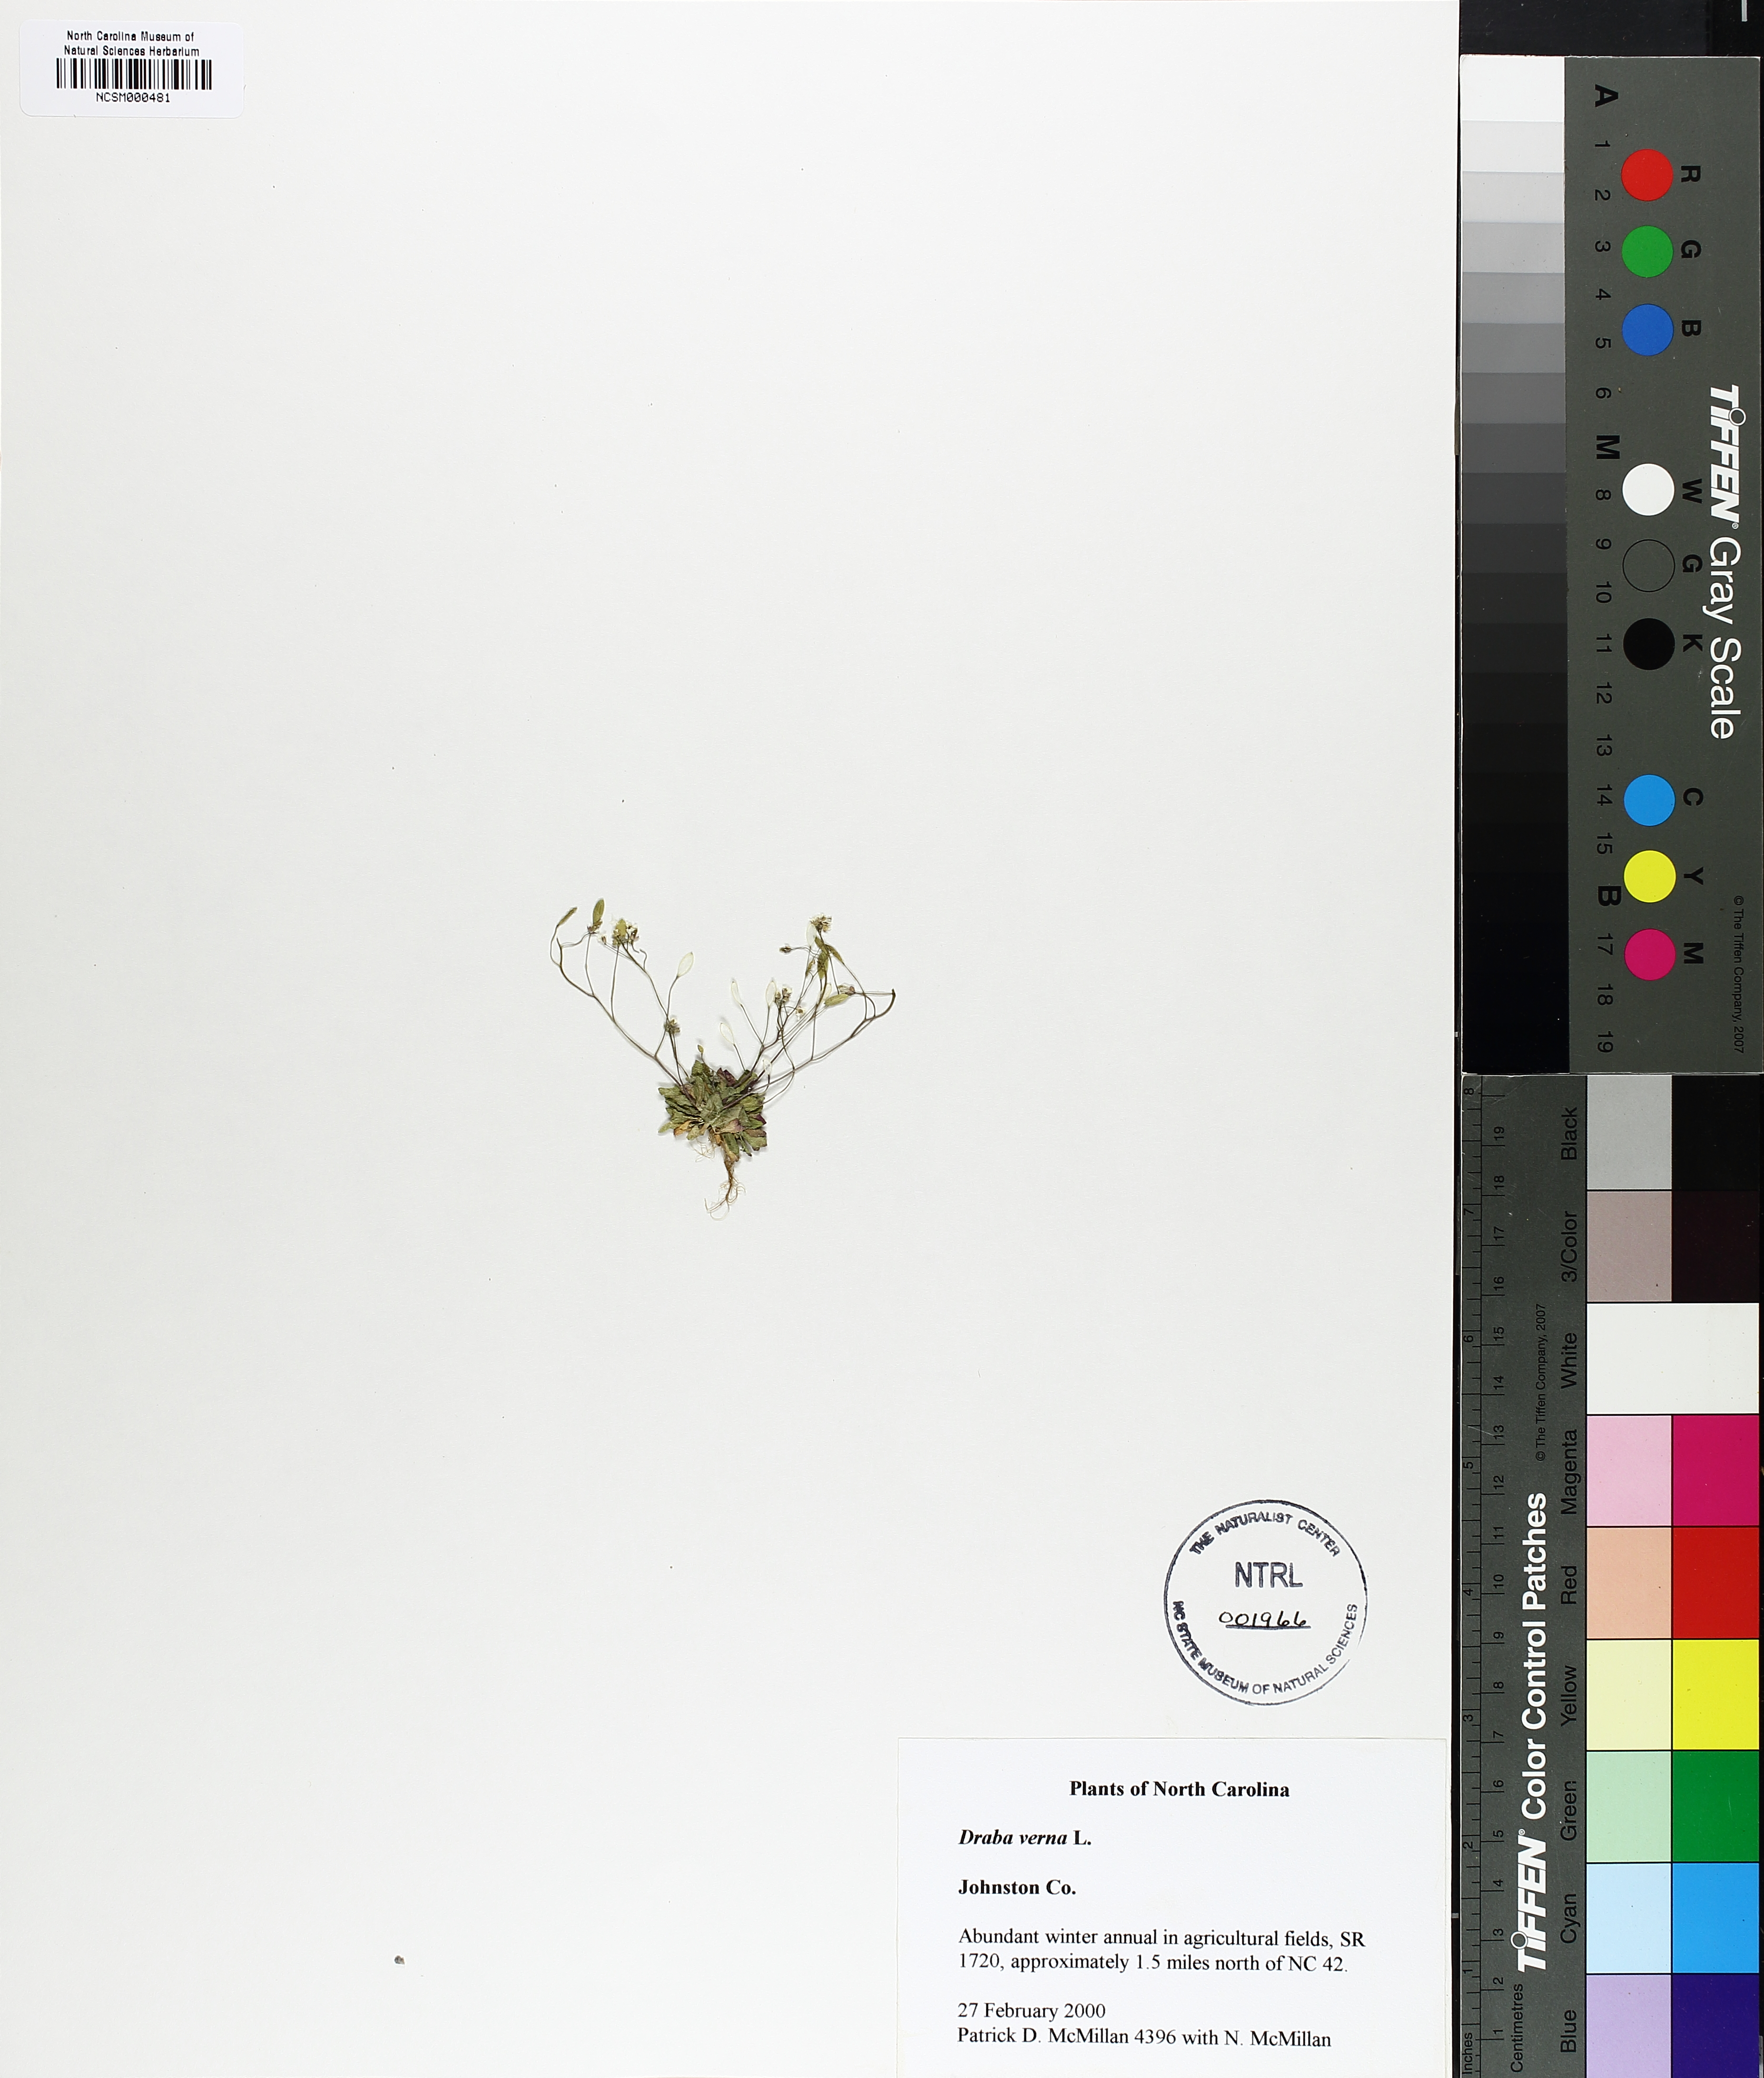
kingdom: Plantae
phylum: Tracheophyta
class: Magnoliopsida
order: Brassicales
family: Brassicaceae
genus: Draba
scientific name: Draba verna
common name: Spring draba
